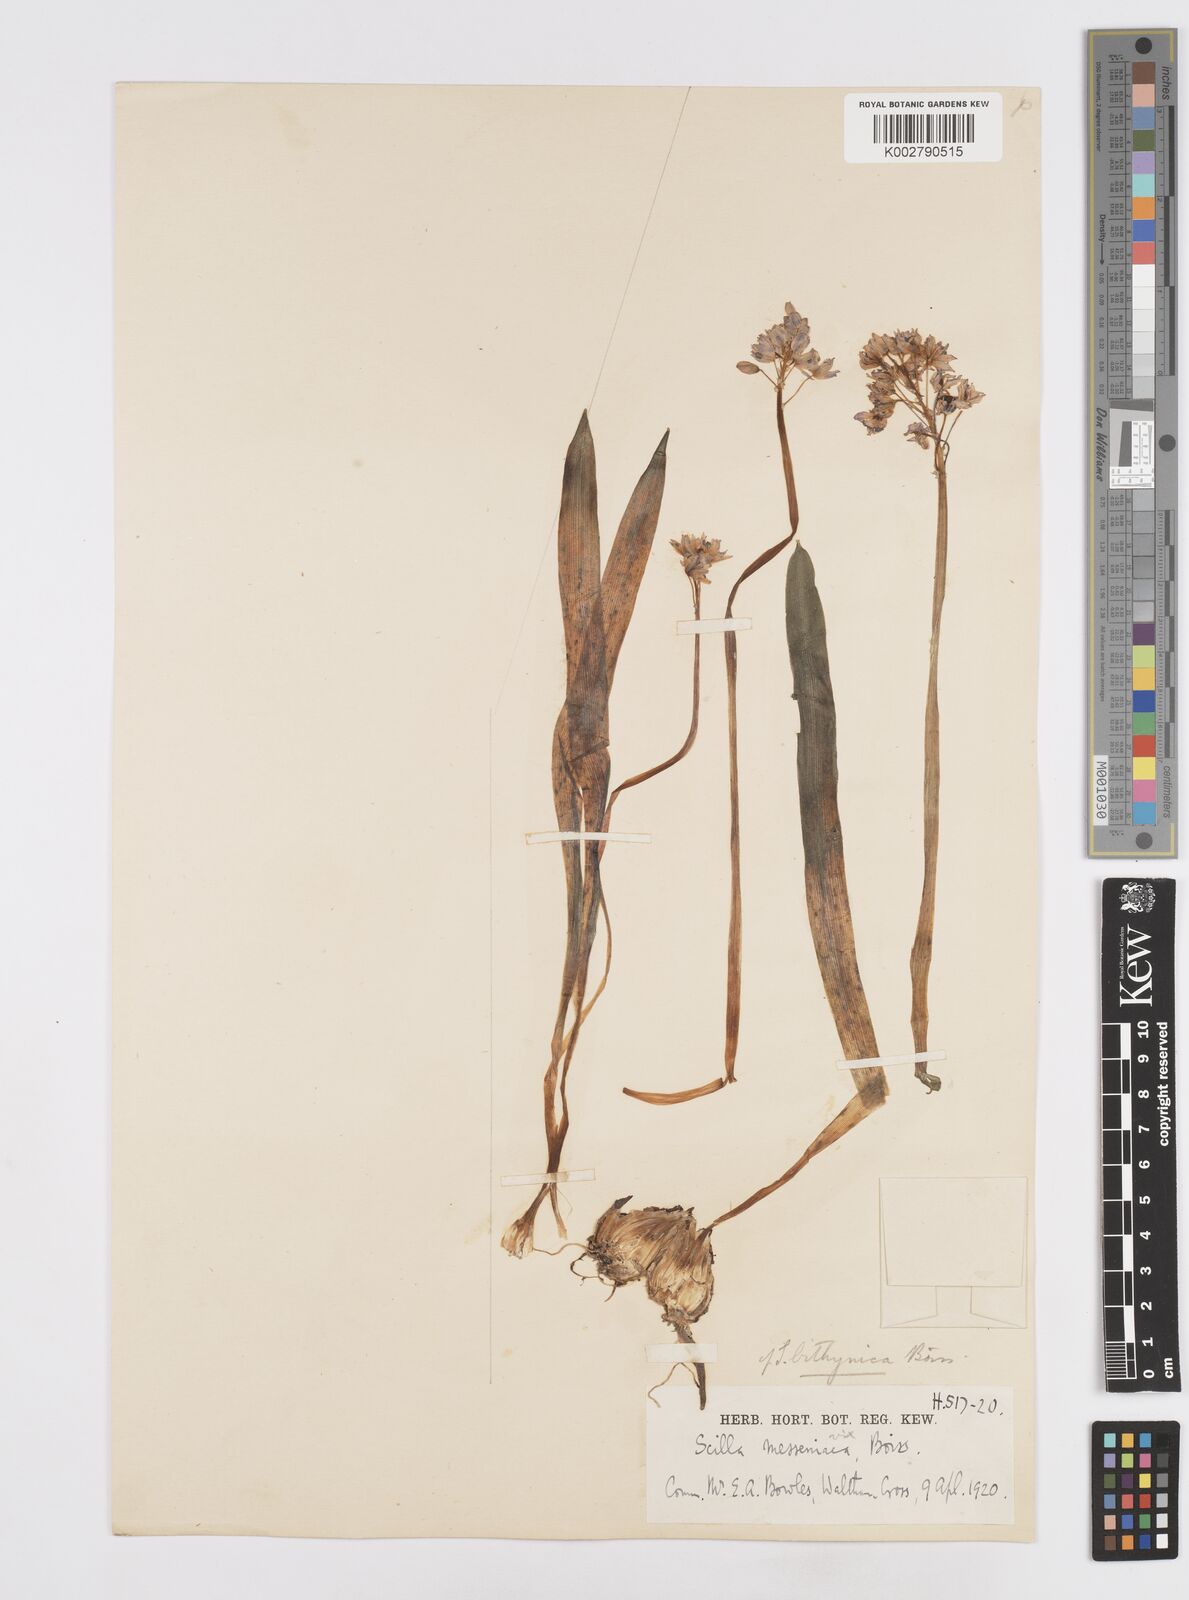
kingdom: Plantae
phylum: Tracheophyta
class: Liliopsida
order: Asparagales
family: Asparagaceae
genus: Scilla
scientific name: Scilla bithynica
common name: Turkish squill
